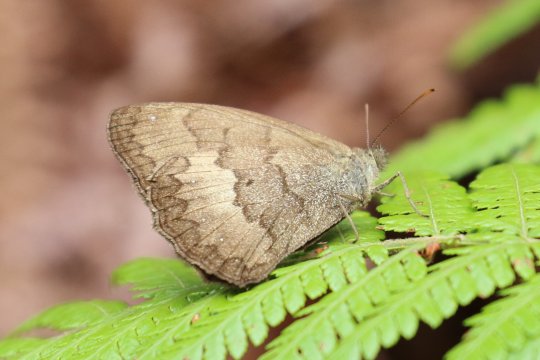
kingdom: Animalia
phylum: Arthropoda
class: Insecta
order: Lepidoptera
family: Nymphalidae
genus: Forsterinaria
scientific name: Forsterinaria
